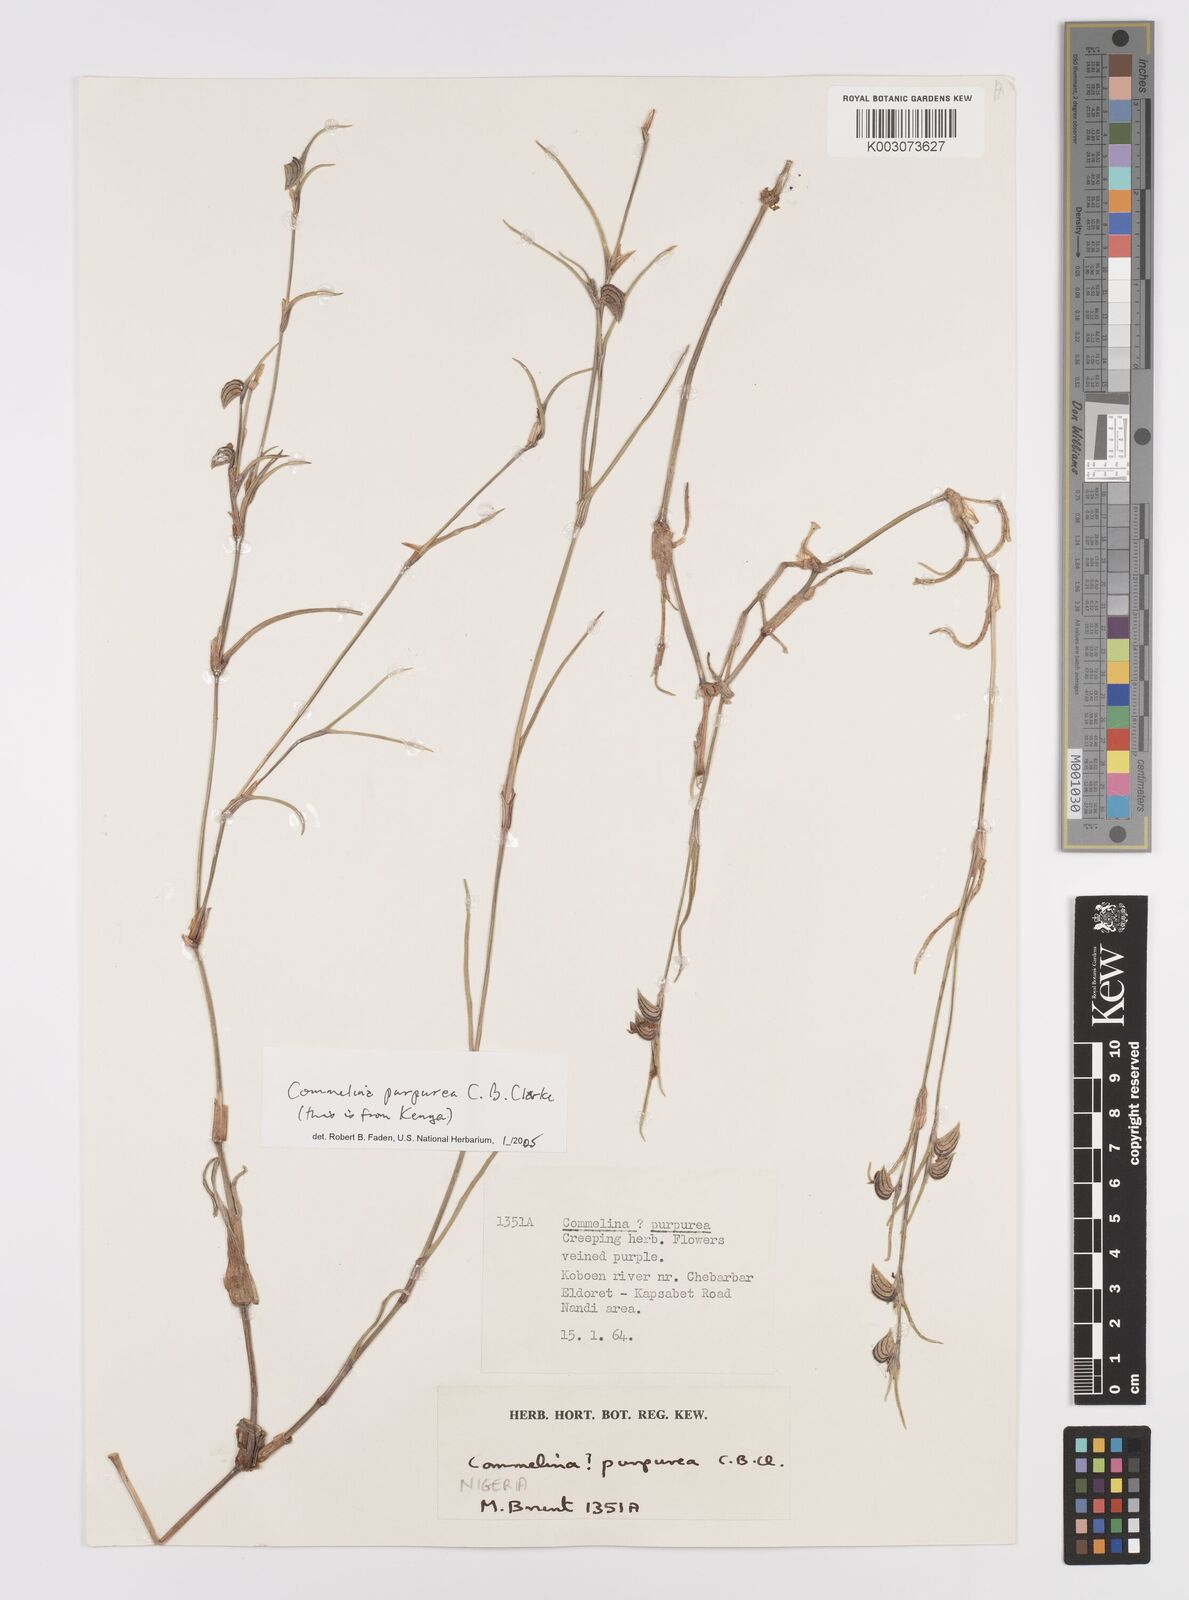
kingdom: Plantae
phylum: Tracheophyta
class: Liliopsida
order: Commelinales
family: Commelinaceae
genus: Commelina
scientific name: Commelina purpurea
